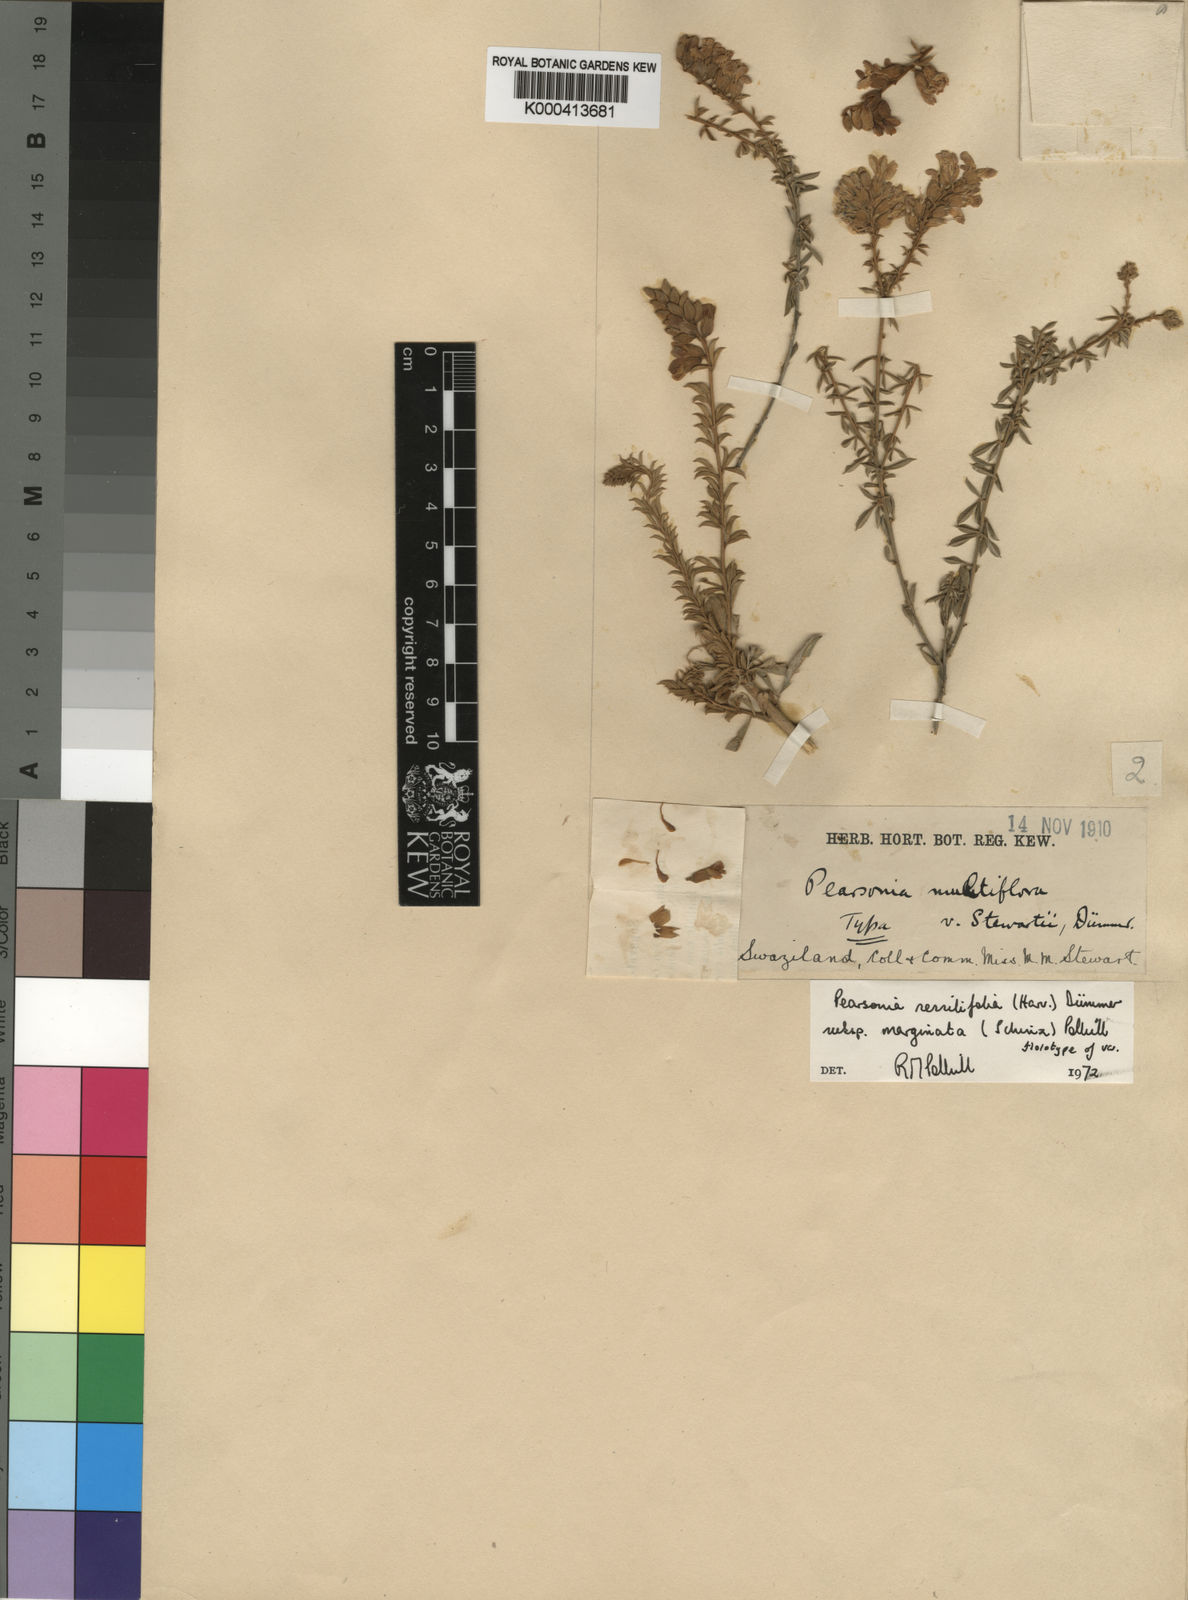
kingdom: Plantae
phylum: Tracheophyta
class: Magnoliopsida
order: Fabales
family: Fabaceae
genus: Pearsonia
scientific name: Pearsonia sessilifolia
